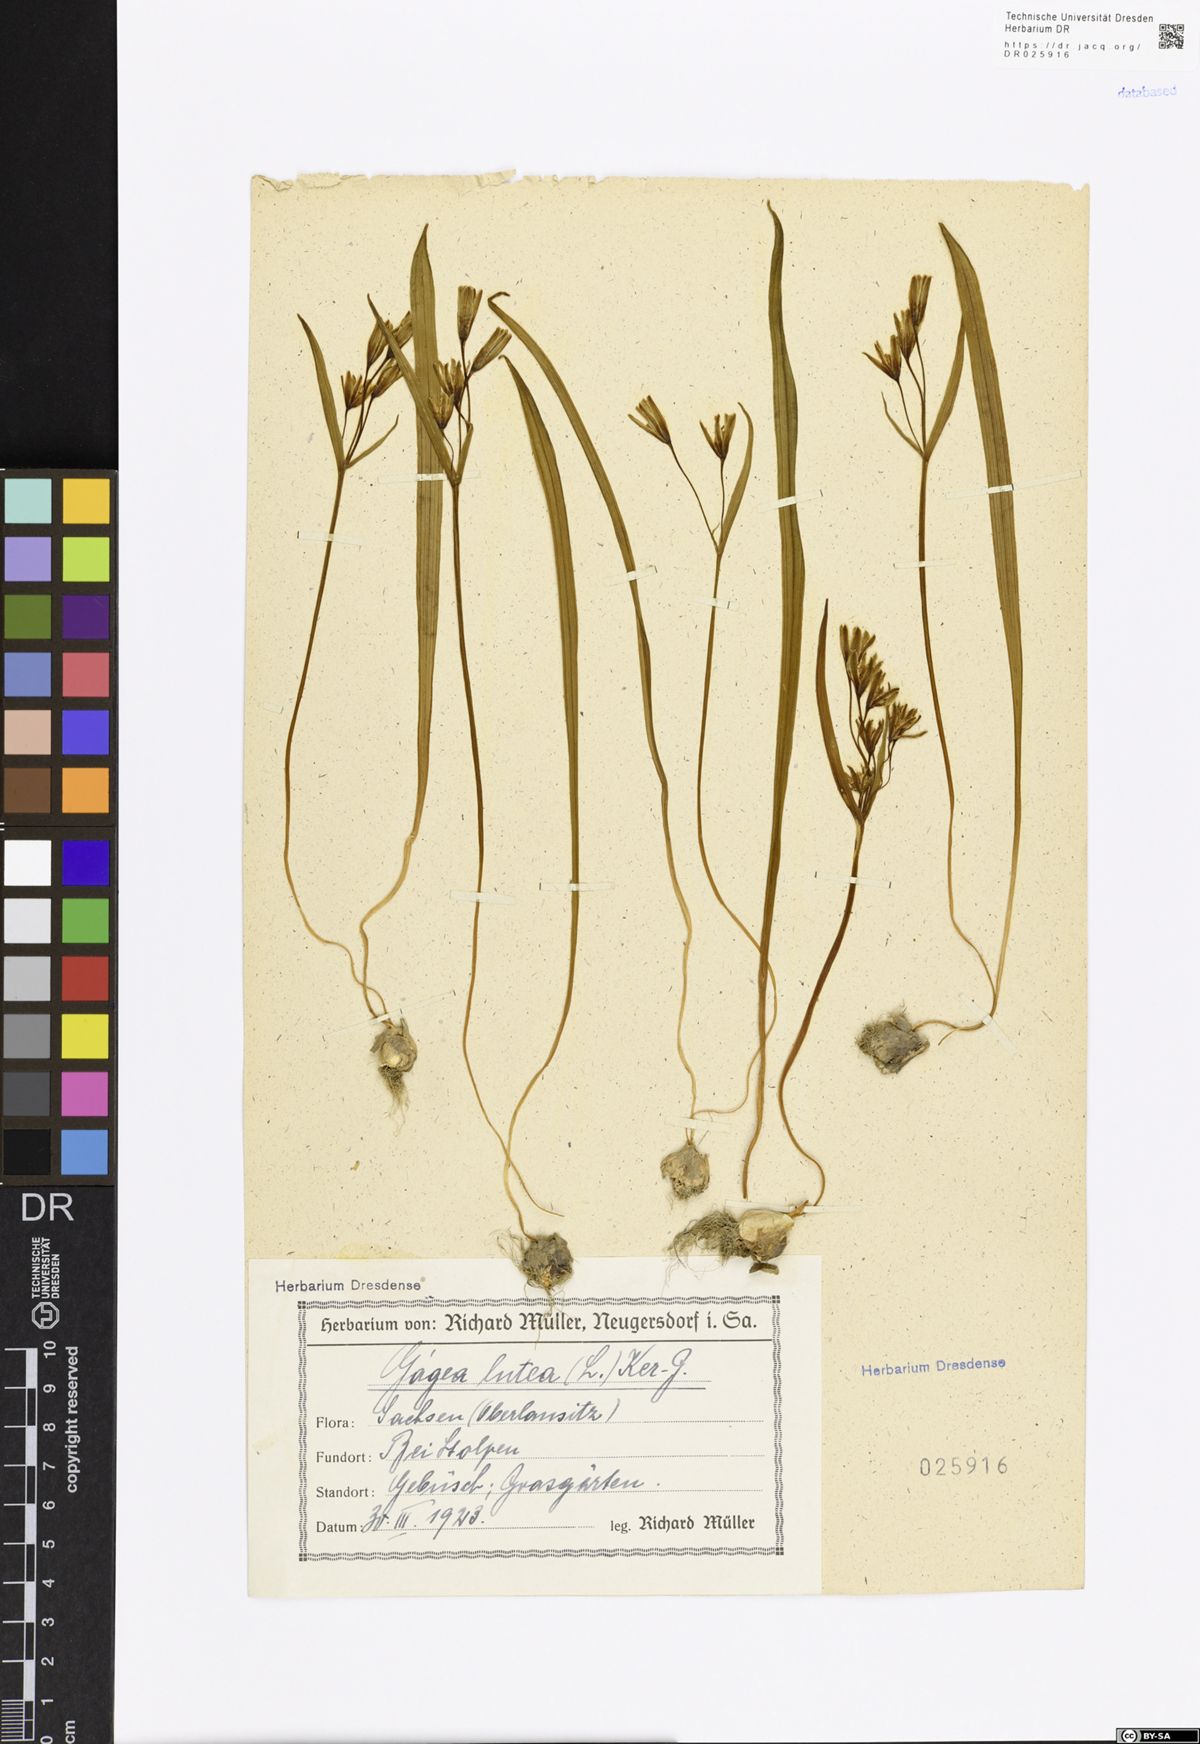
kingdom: Plantae
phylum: Tracheophyta
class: Liliopsida
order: Liliales
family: Liliaceae
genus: Gagea
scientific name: Gagea lutea
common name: Yellow star-of-bethlehem
